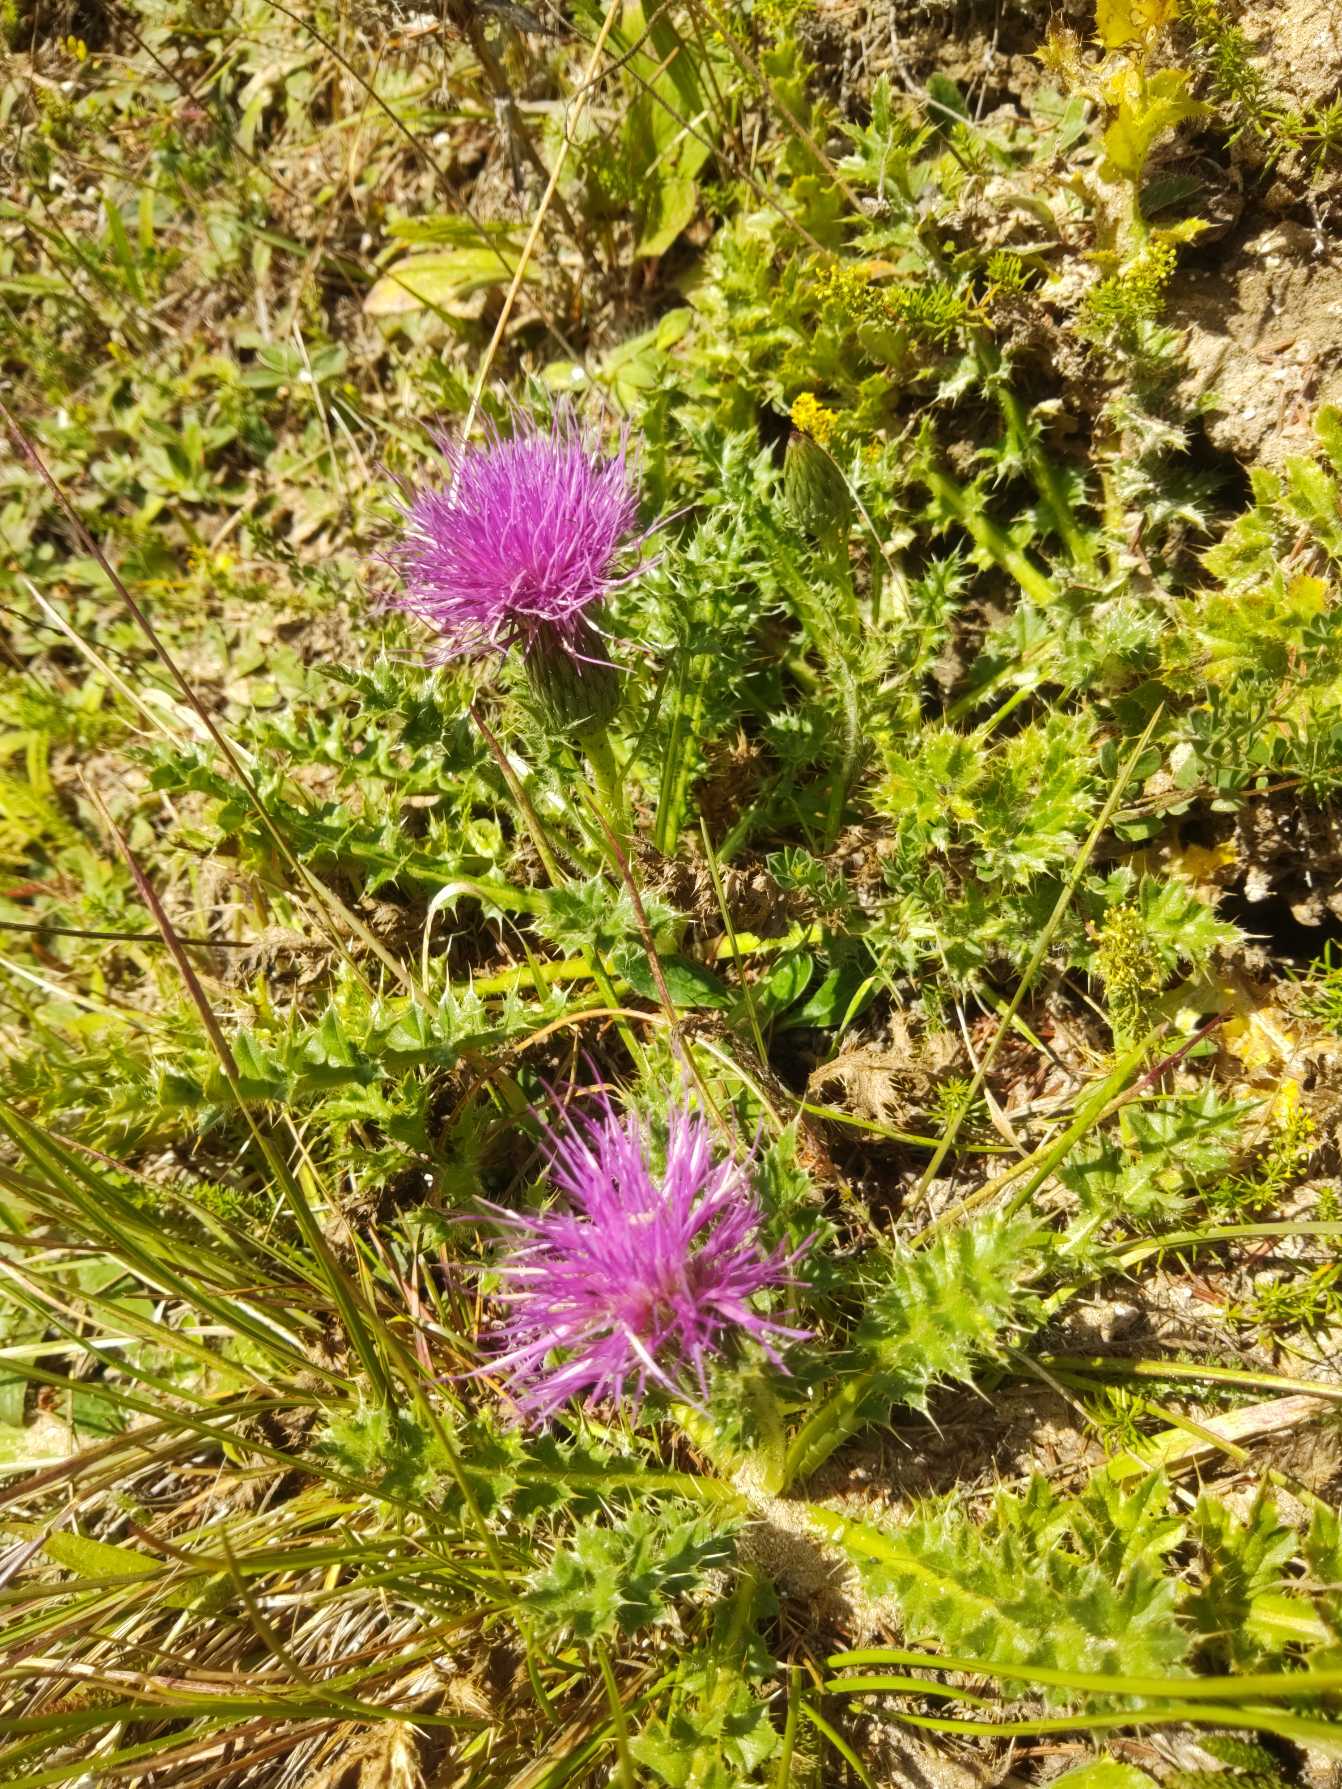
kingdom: Plantae
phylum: Tracheophyta
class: Magnoliopsida
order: Asterales
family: Asteraceae
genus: Cirsium
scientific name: Cirsium acaule
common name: Lav tidsel
